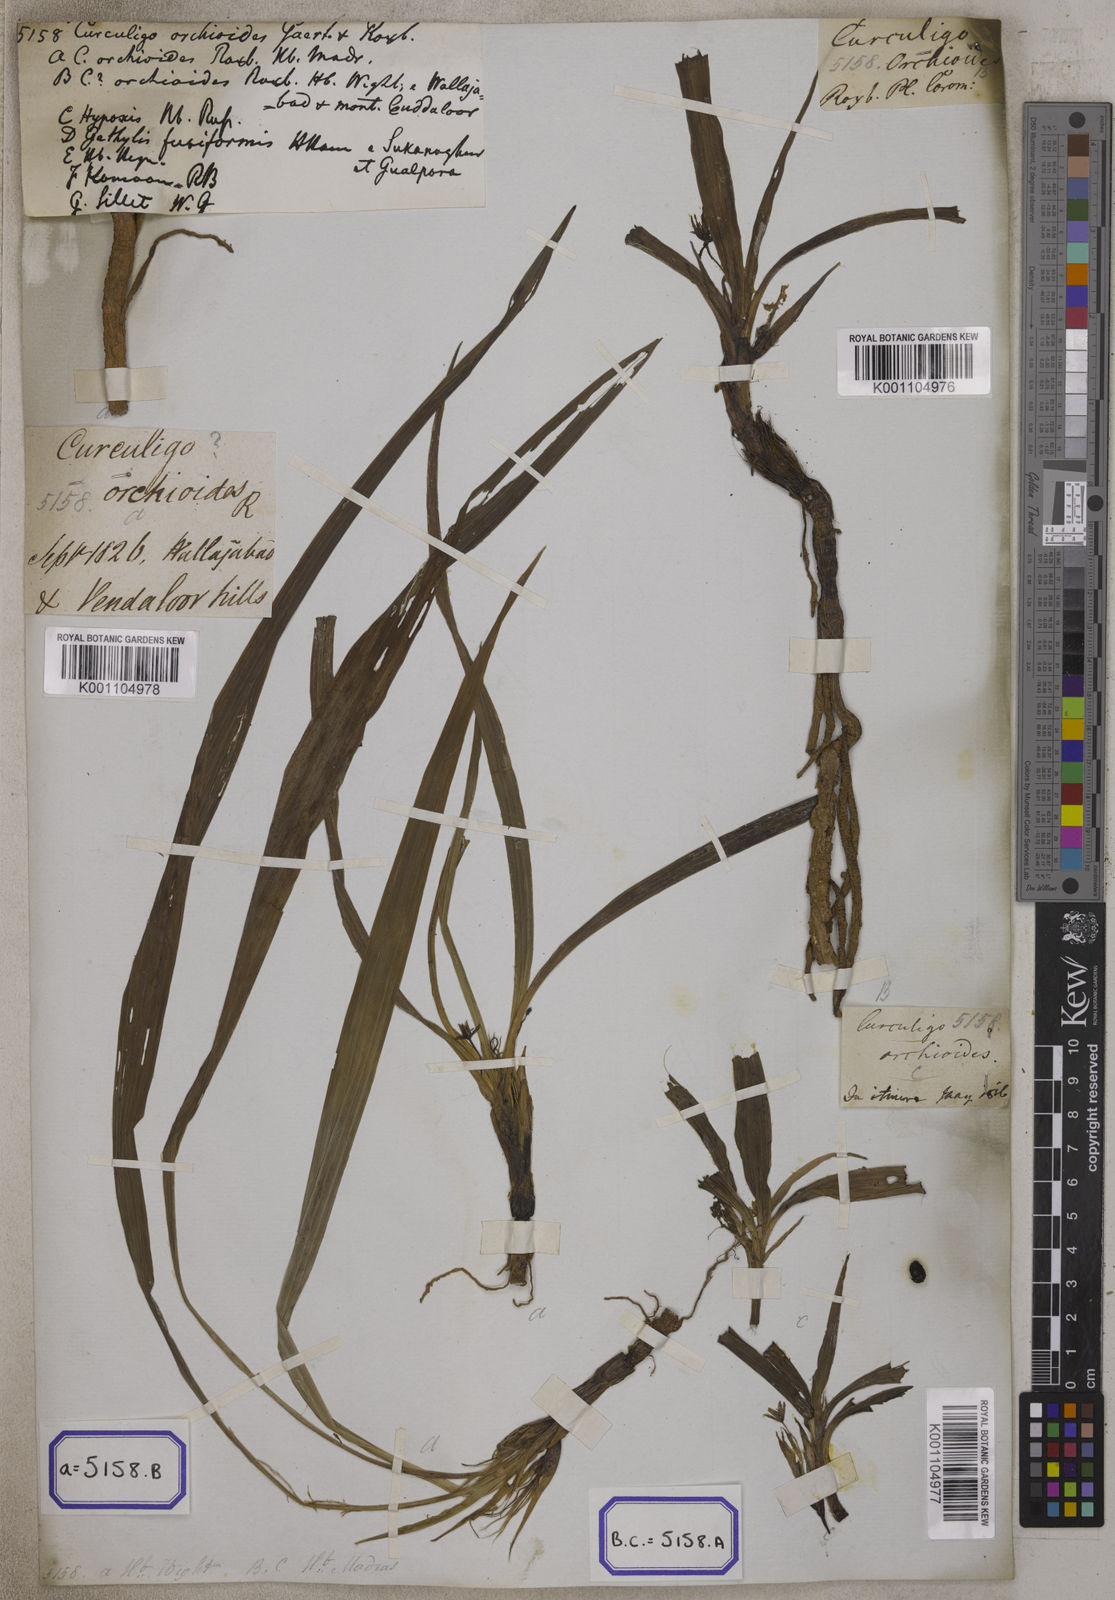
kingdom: Plantae
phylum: Tracheophyta
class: Liliopsida
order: Asparagales
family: Hypoxidaceae
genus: Curculigo
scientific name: Curculigo orchioides
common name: Golden eye-grass
